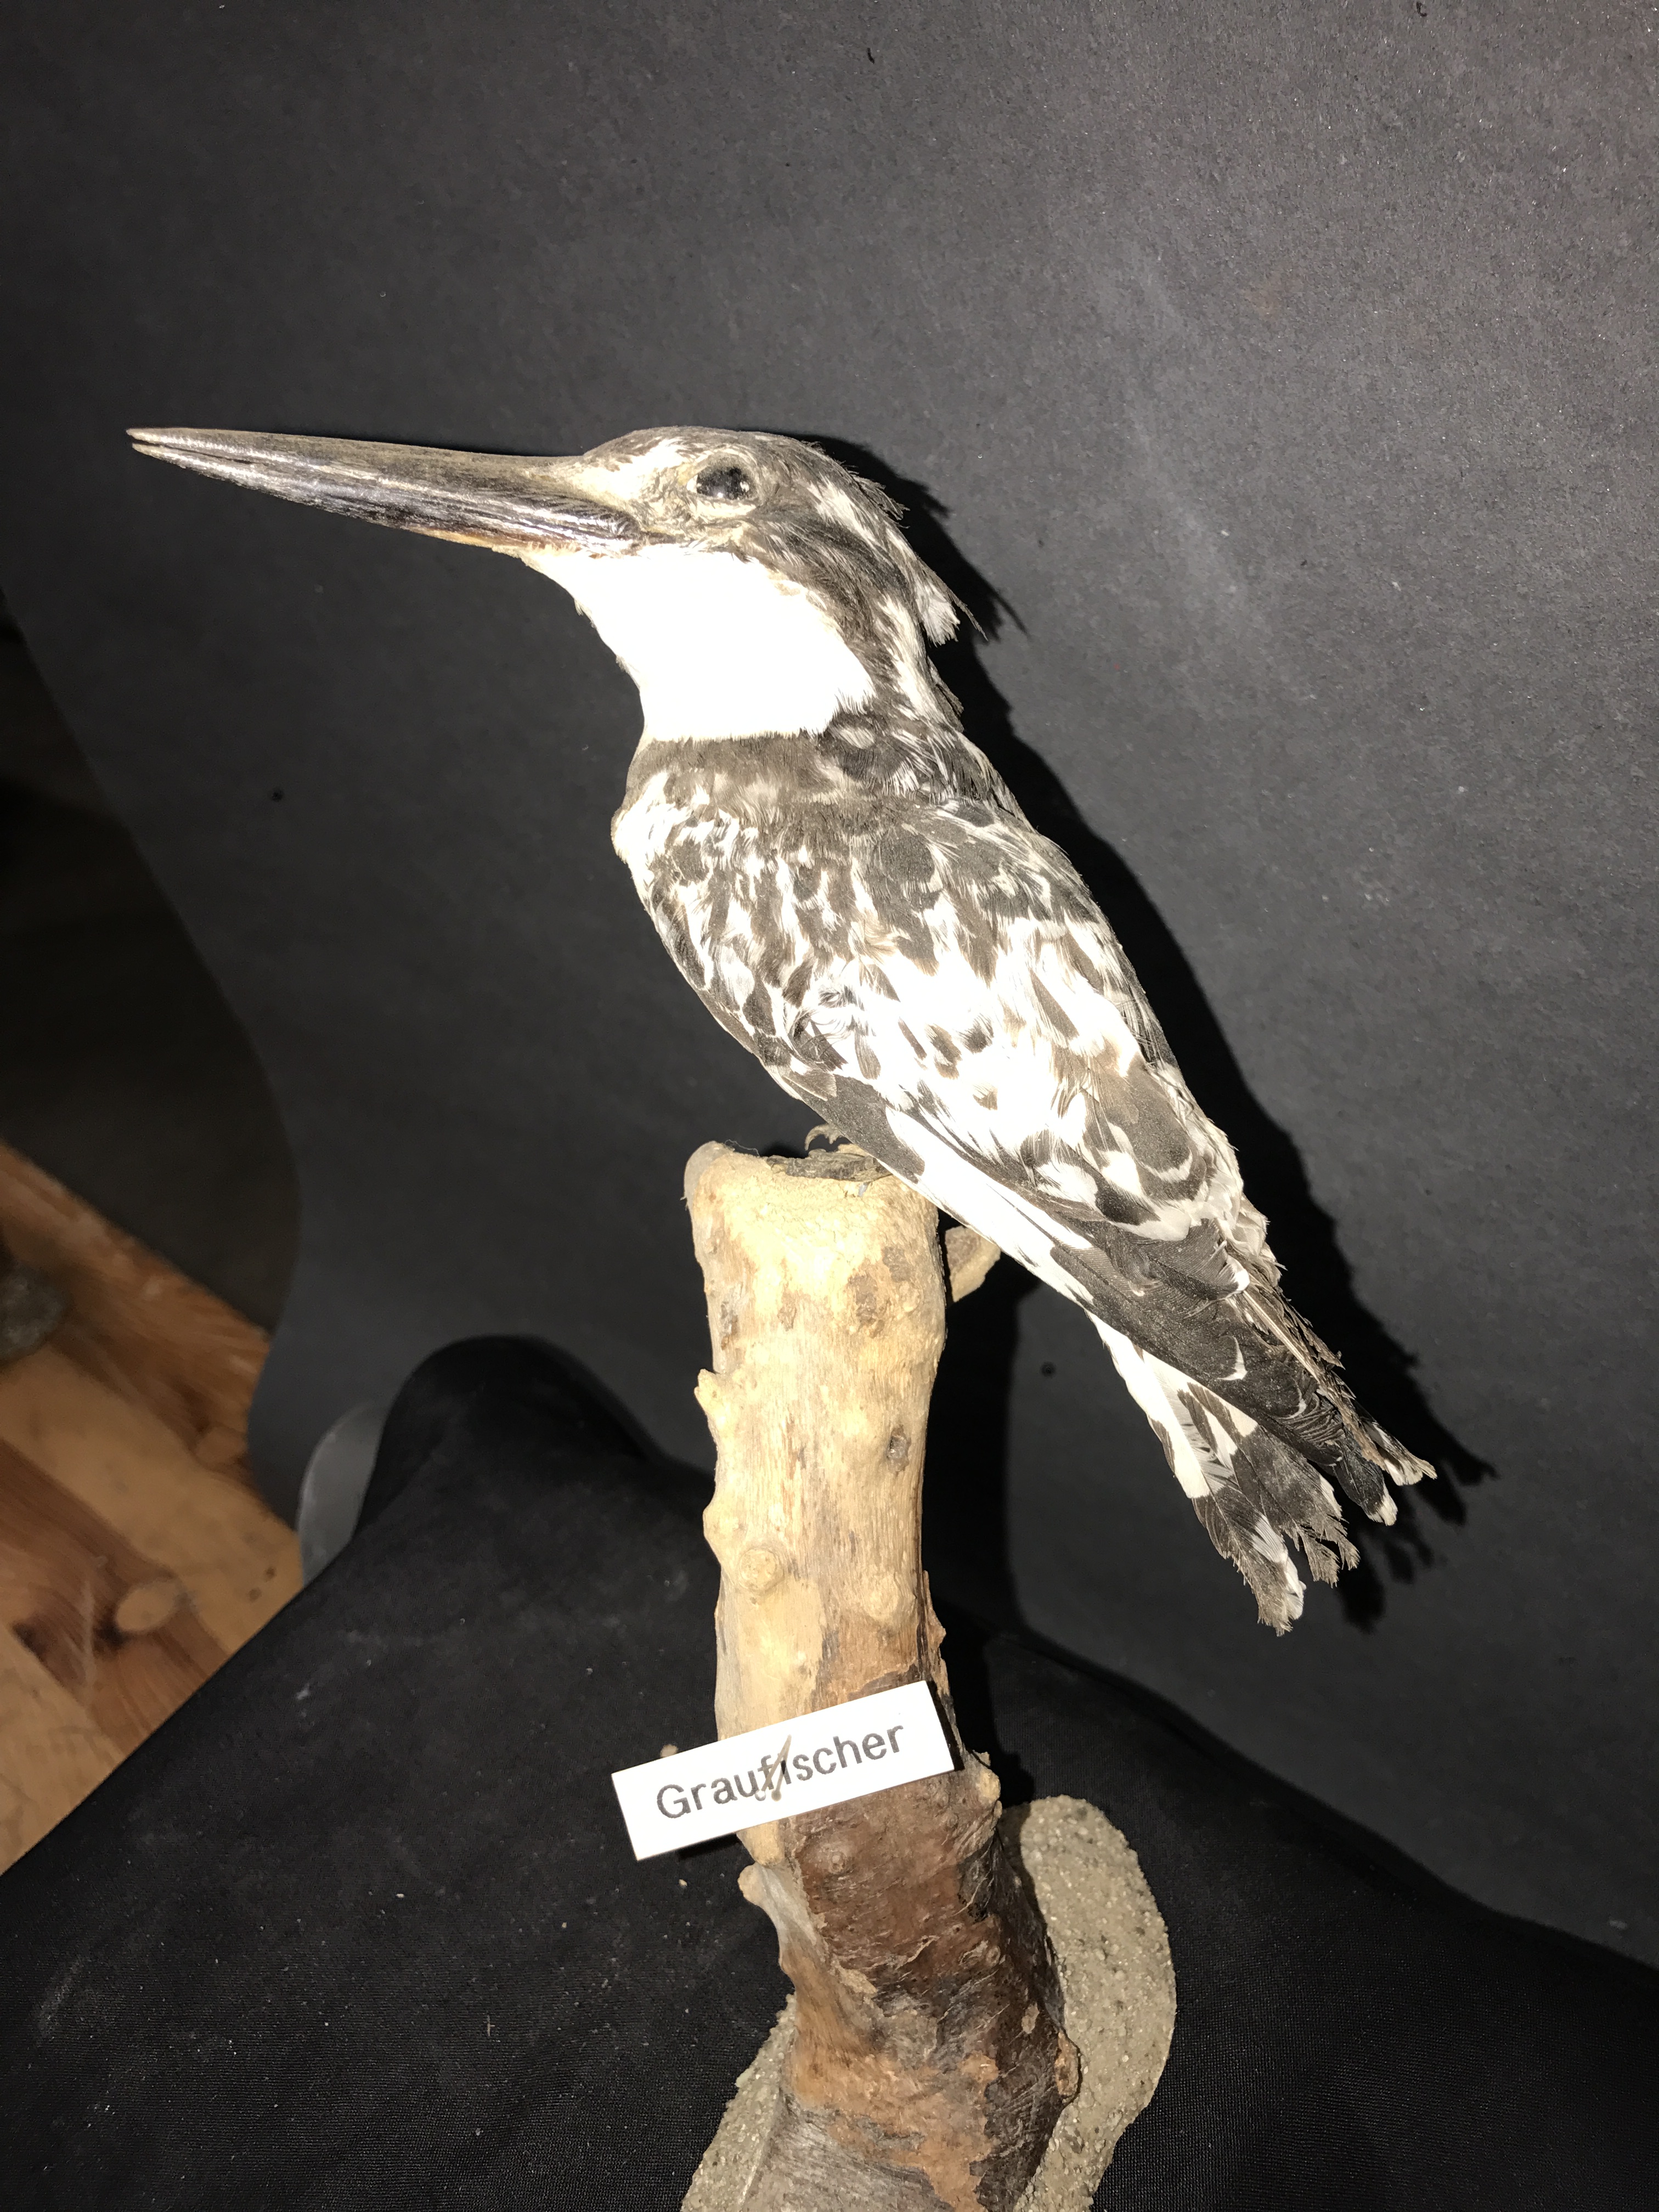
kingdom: Animalia
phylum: Chordata
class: Aves
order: Coraciiformes
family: Alcedinidae
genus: Ceryle
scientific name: Ceryle rudis
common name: Pied kingfisher
